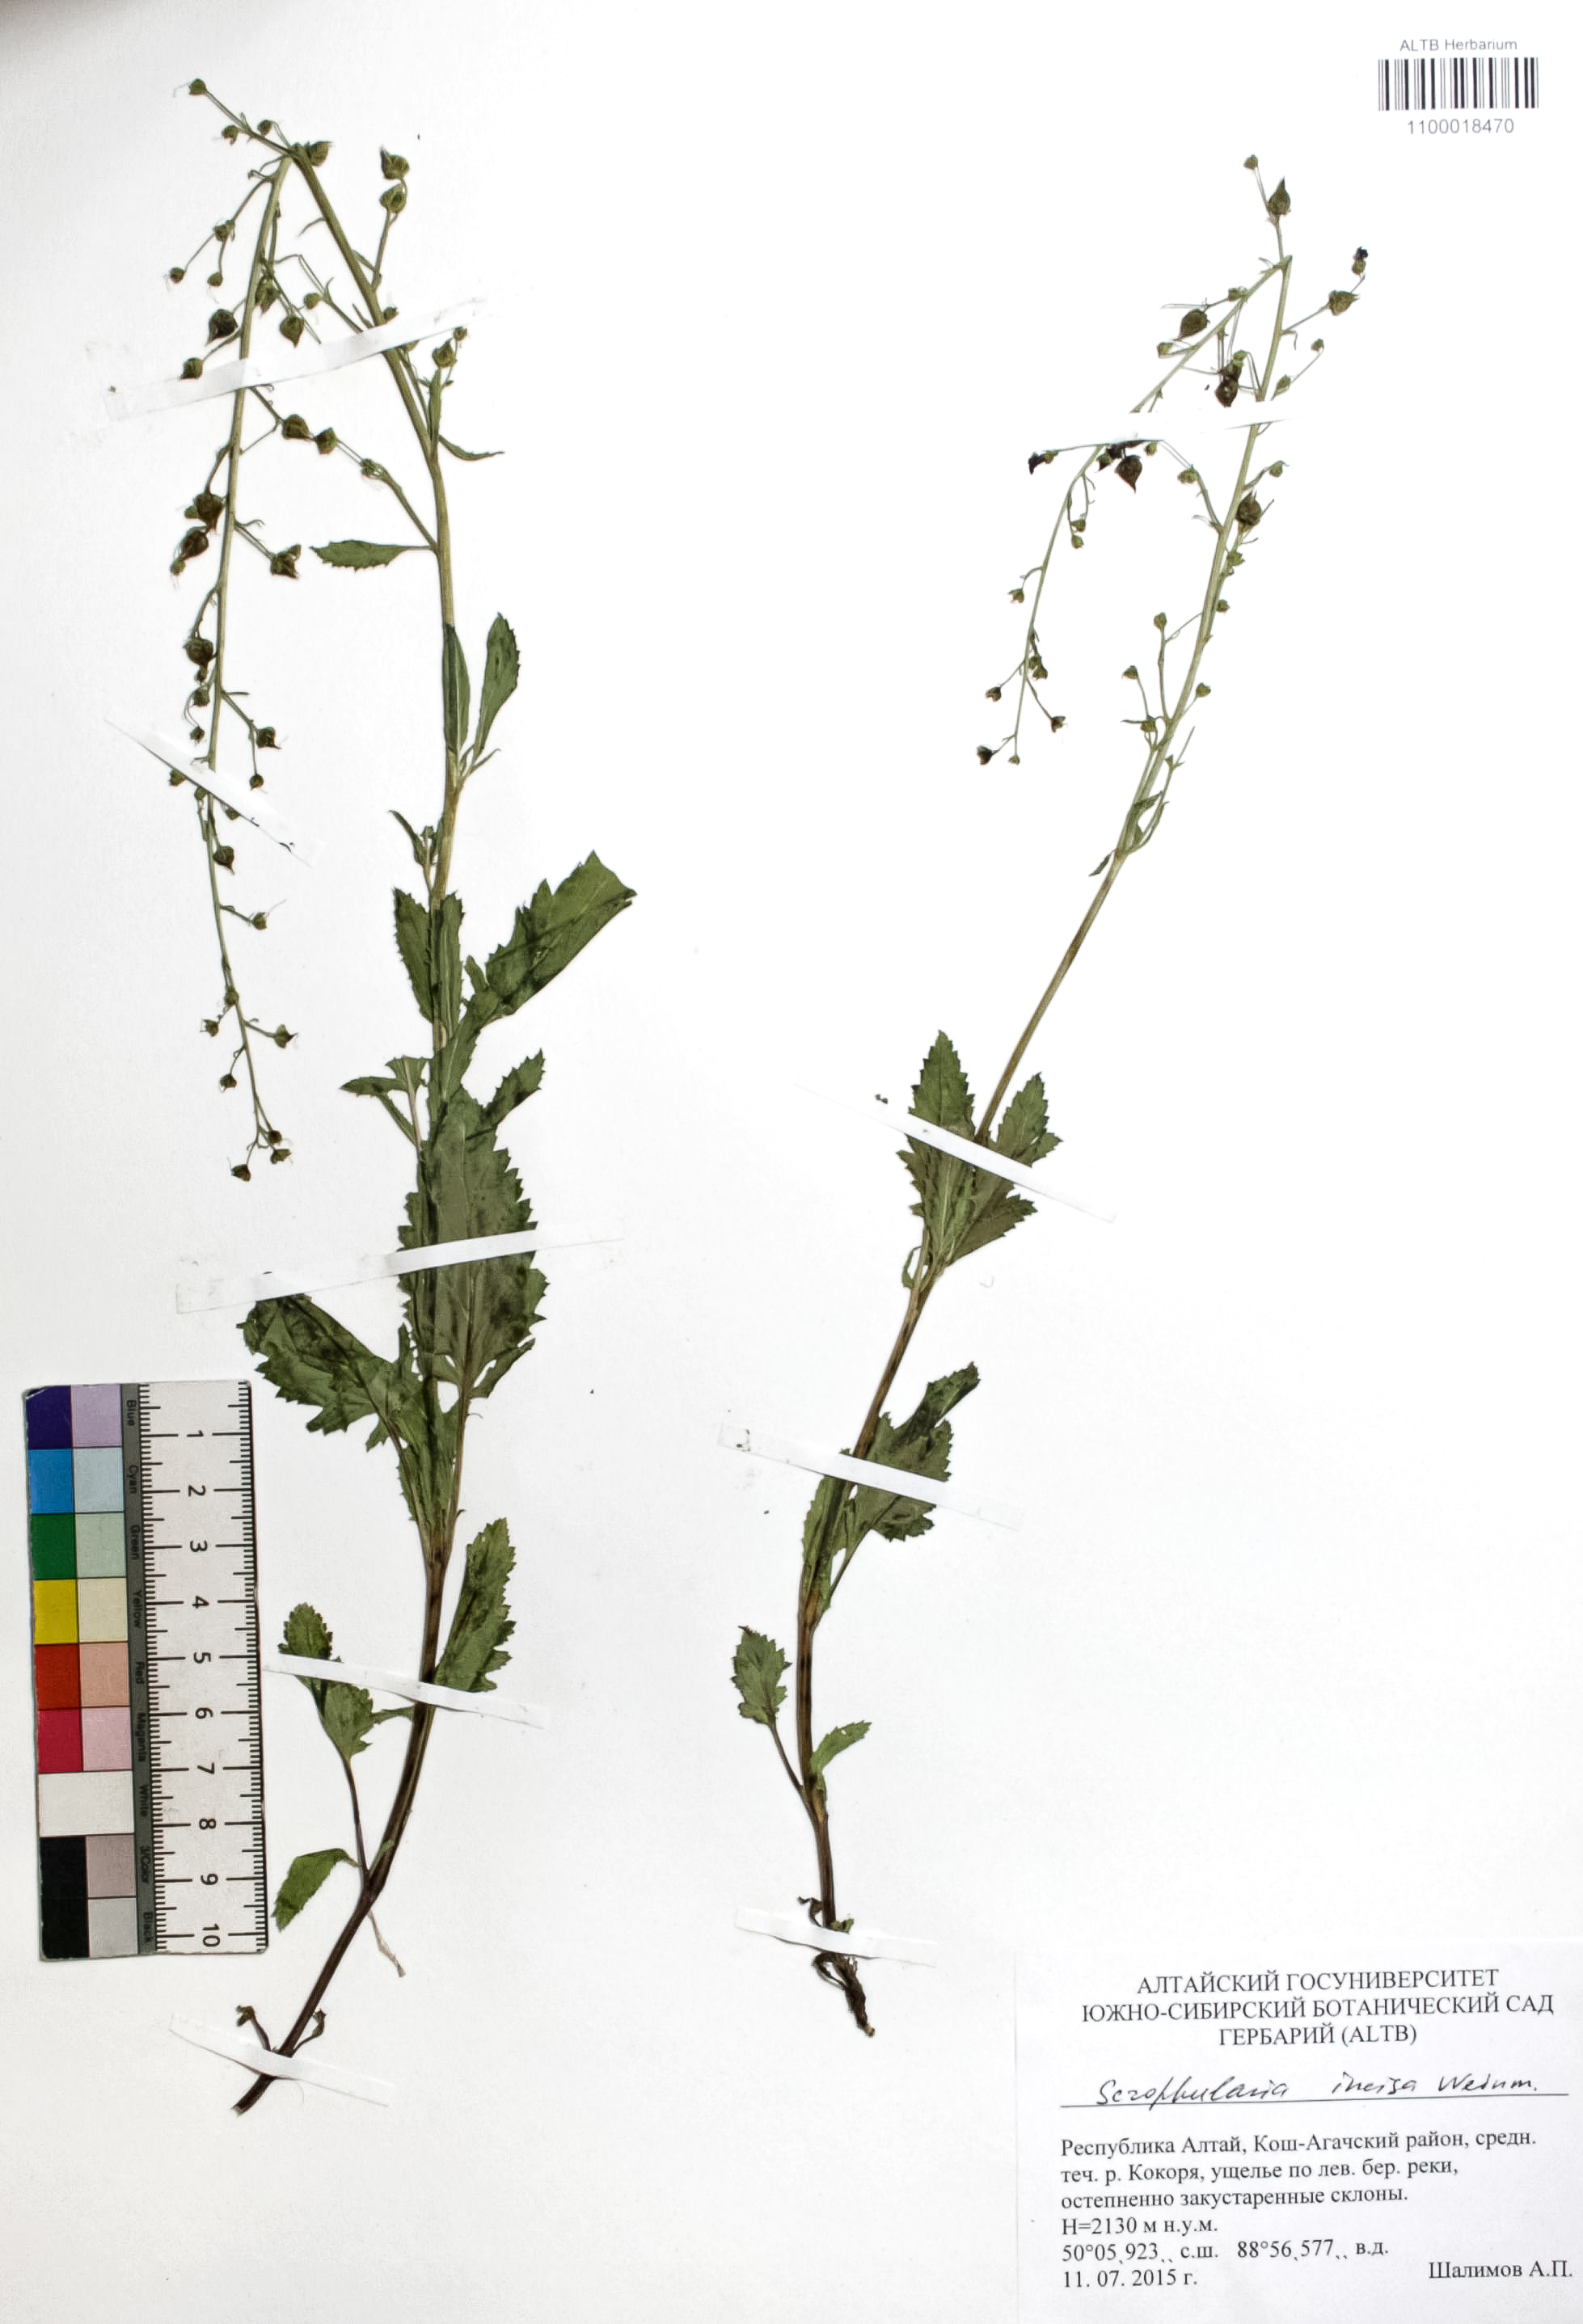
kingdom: Plantae
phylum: Tracheophyta
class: Magnoliopsida
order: Lamiales
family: Scrophulariaceae
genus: Scrophularia
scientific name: Scrophularia incisa
